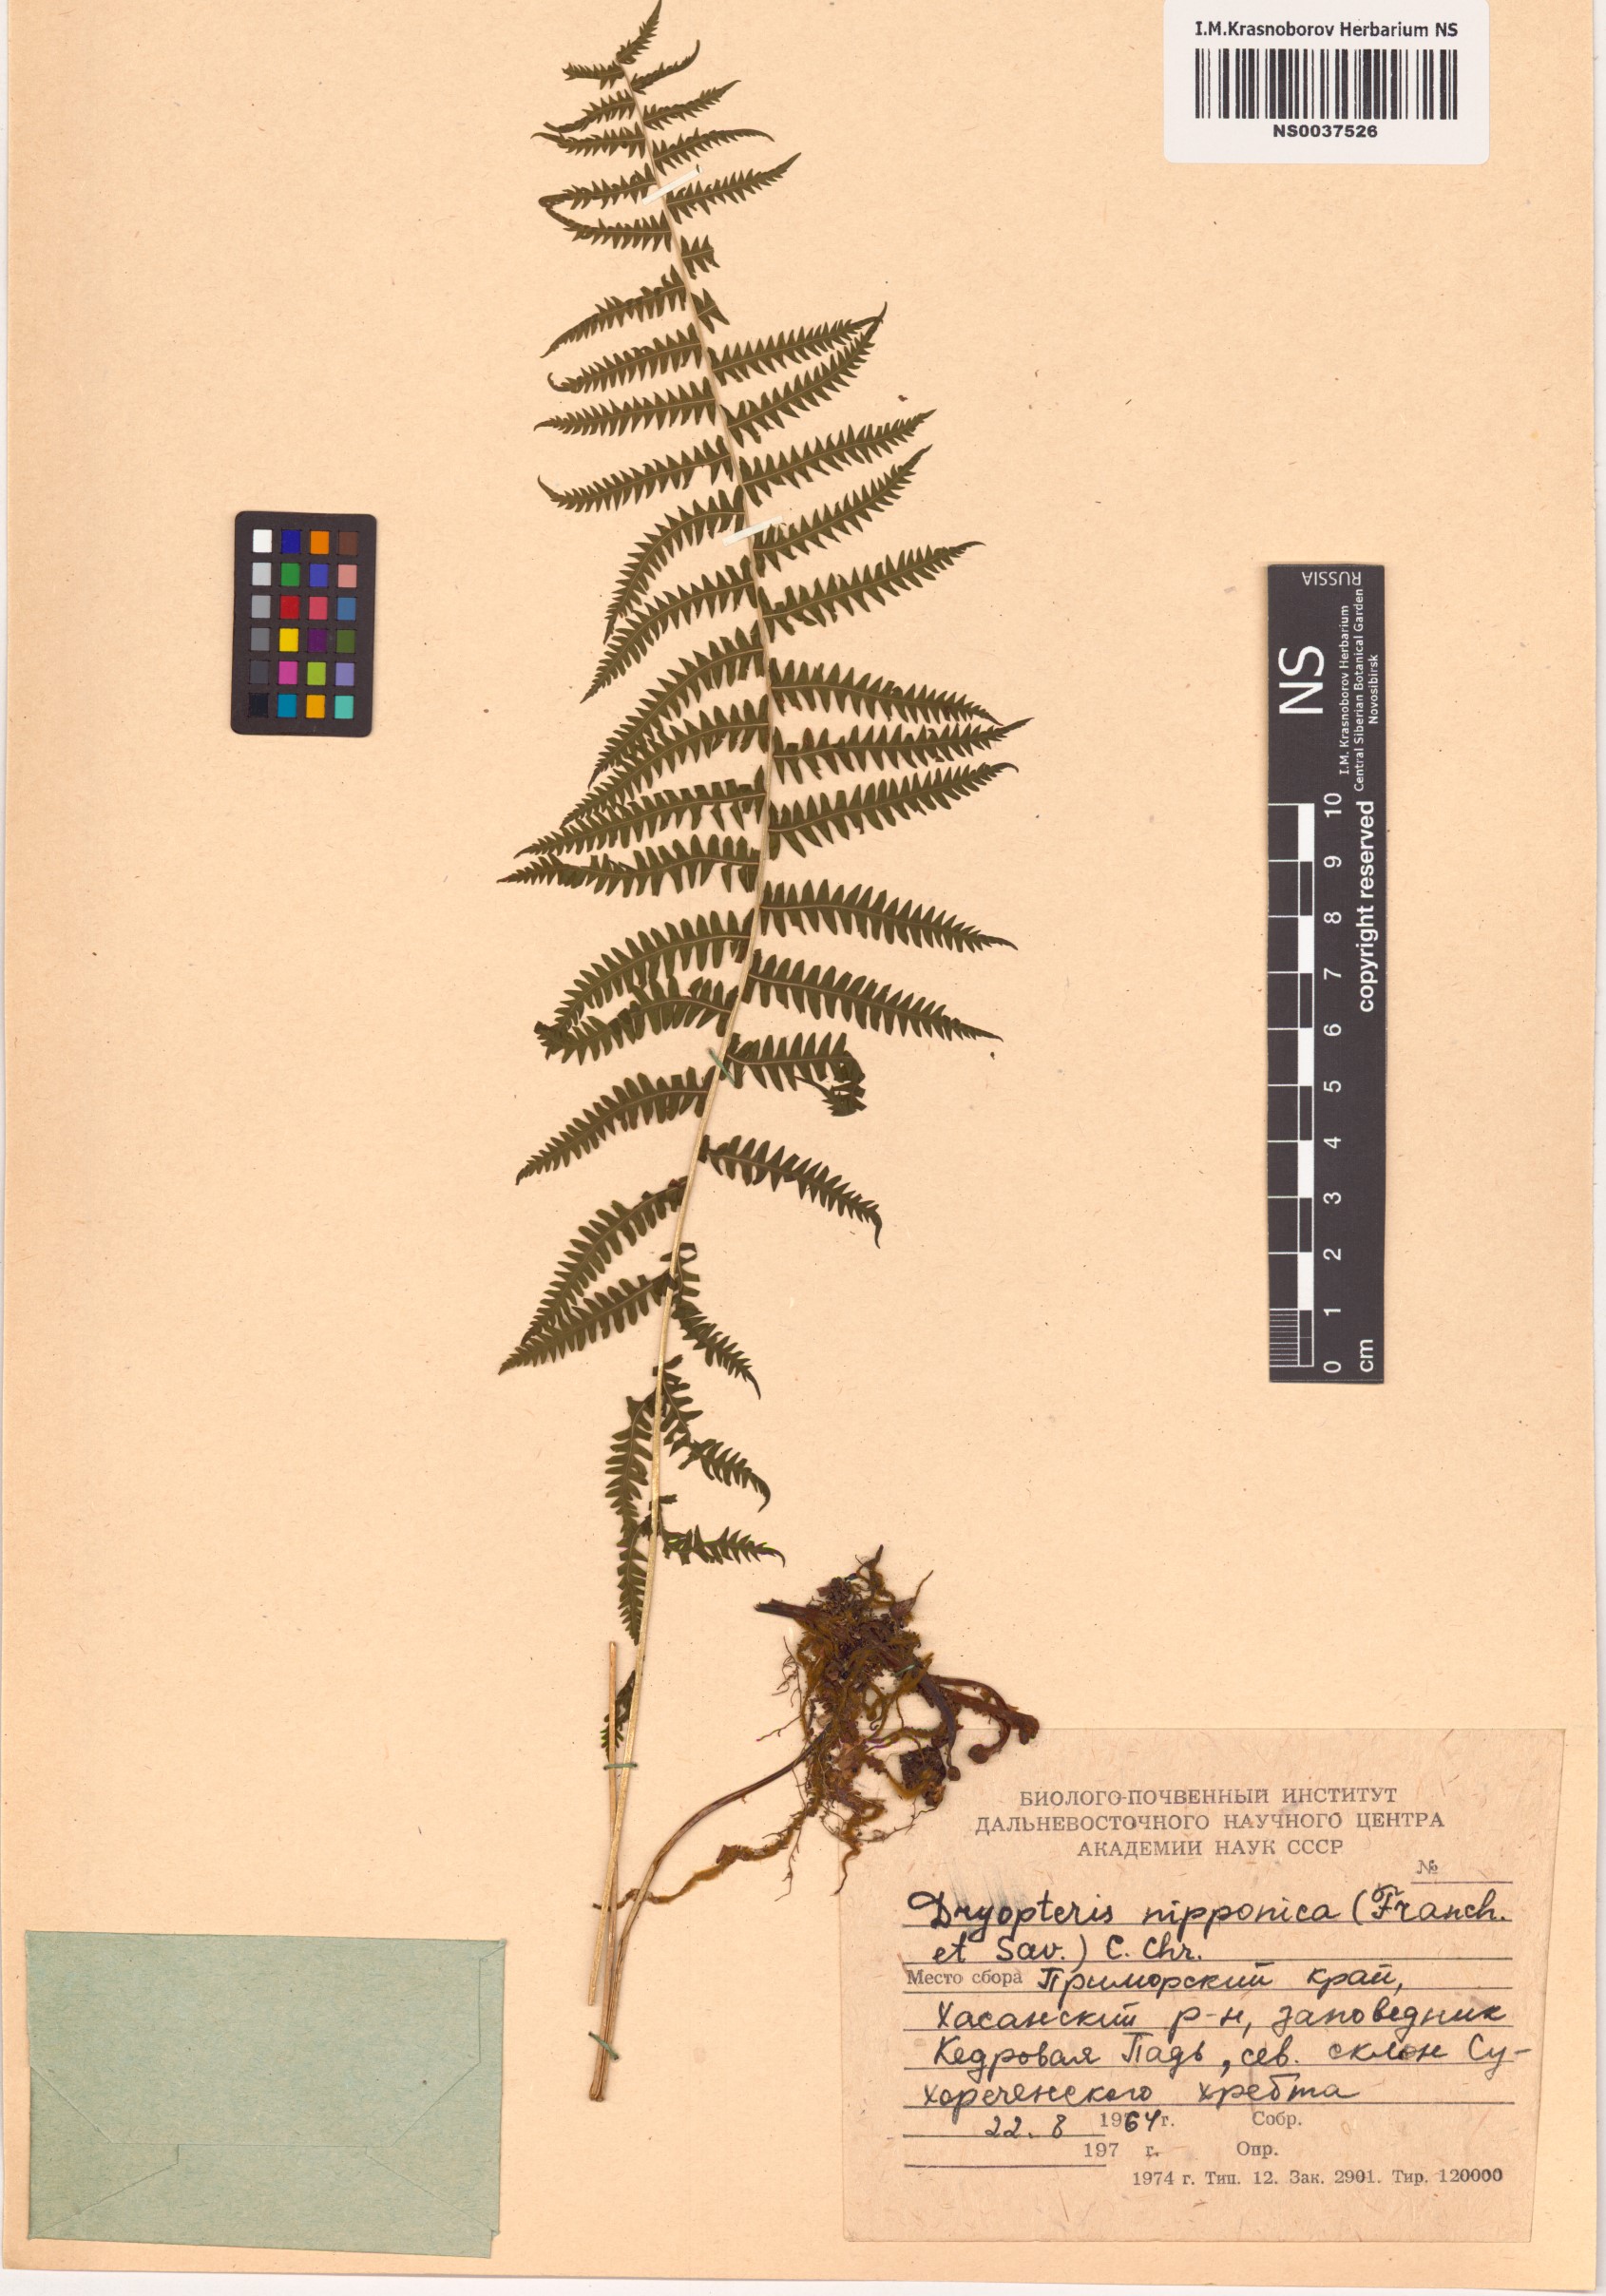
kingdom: Plantae
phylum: Tracheophyta
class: Polypodiopsida
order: Polypodiales
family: Thelypteridaceae
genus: Coryphopteris
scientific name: Coryphopteris nipponica
